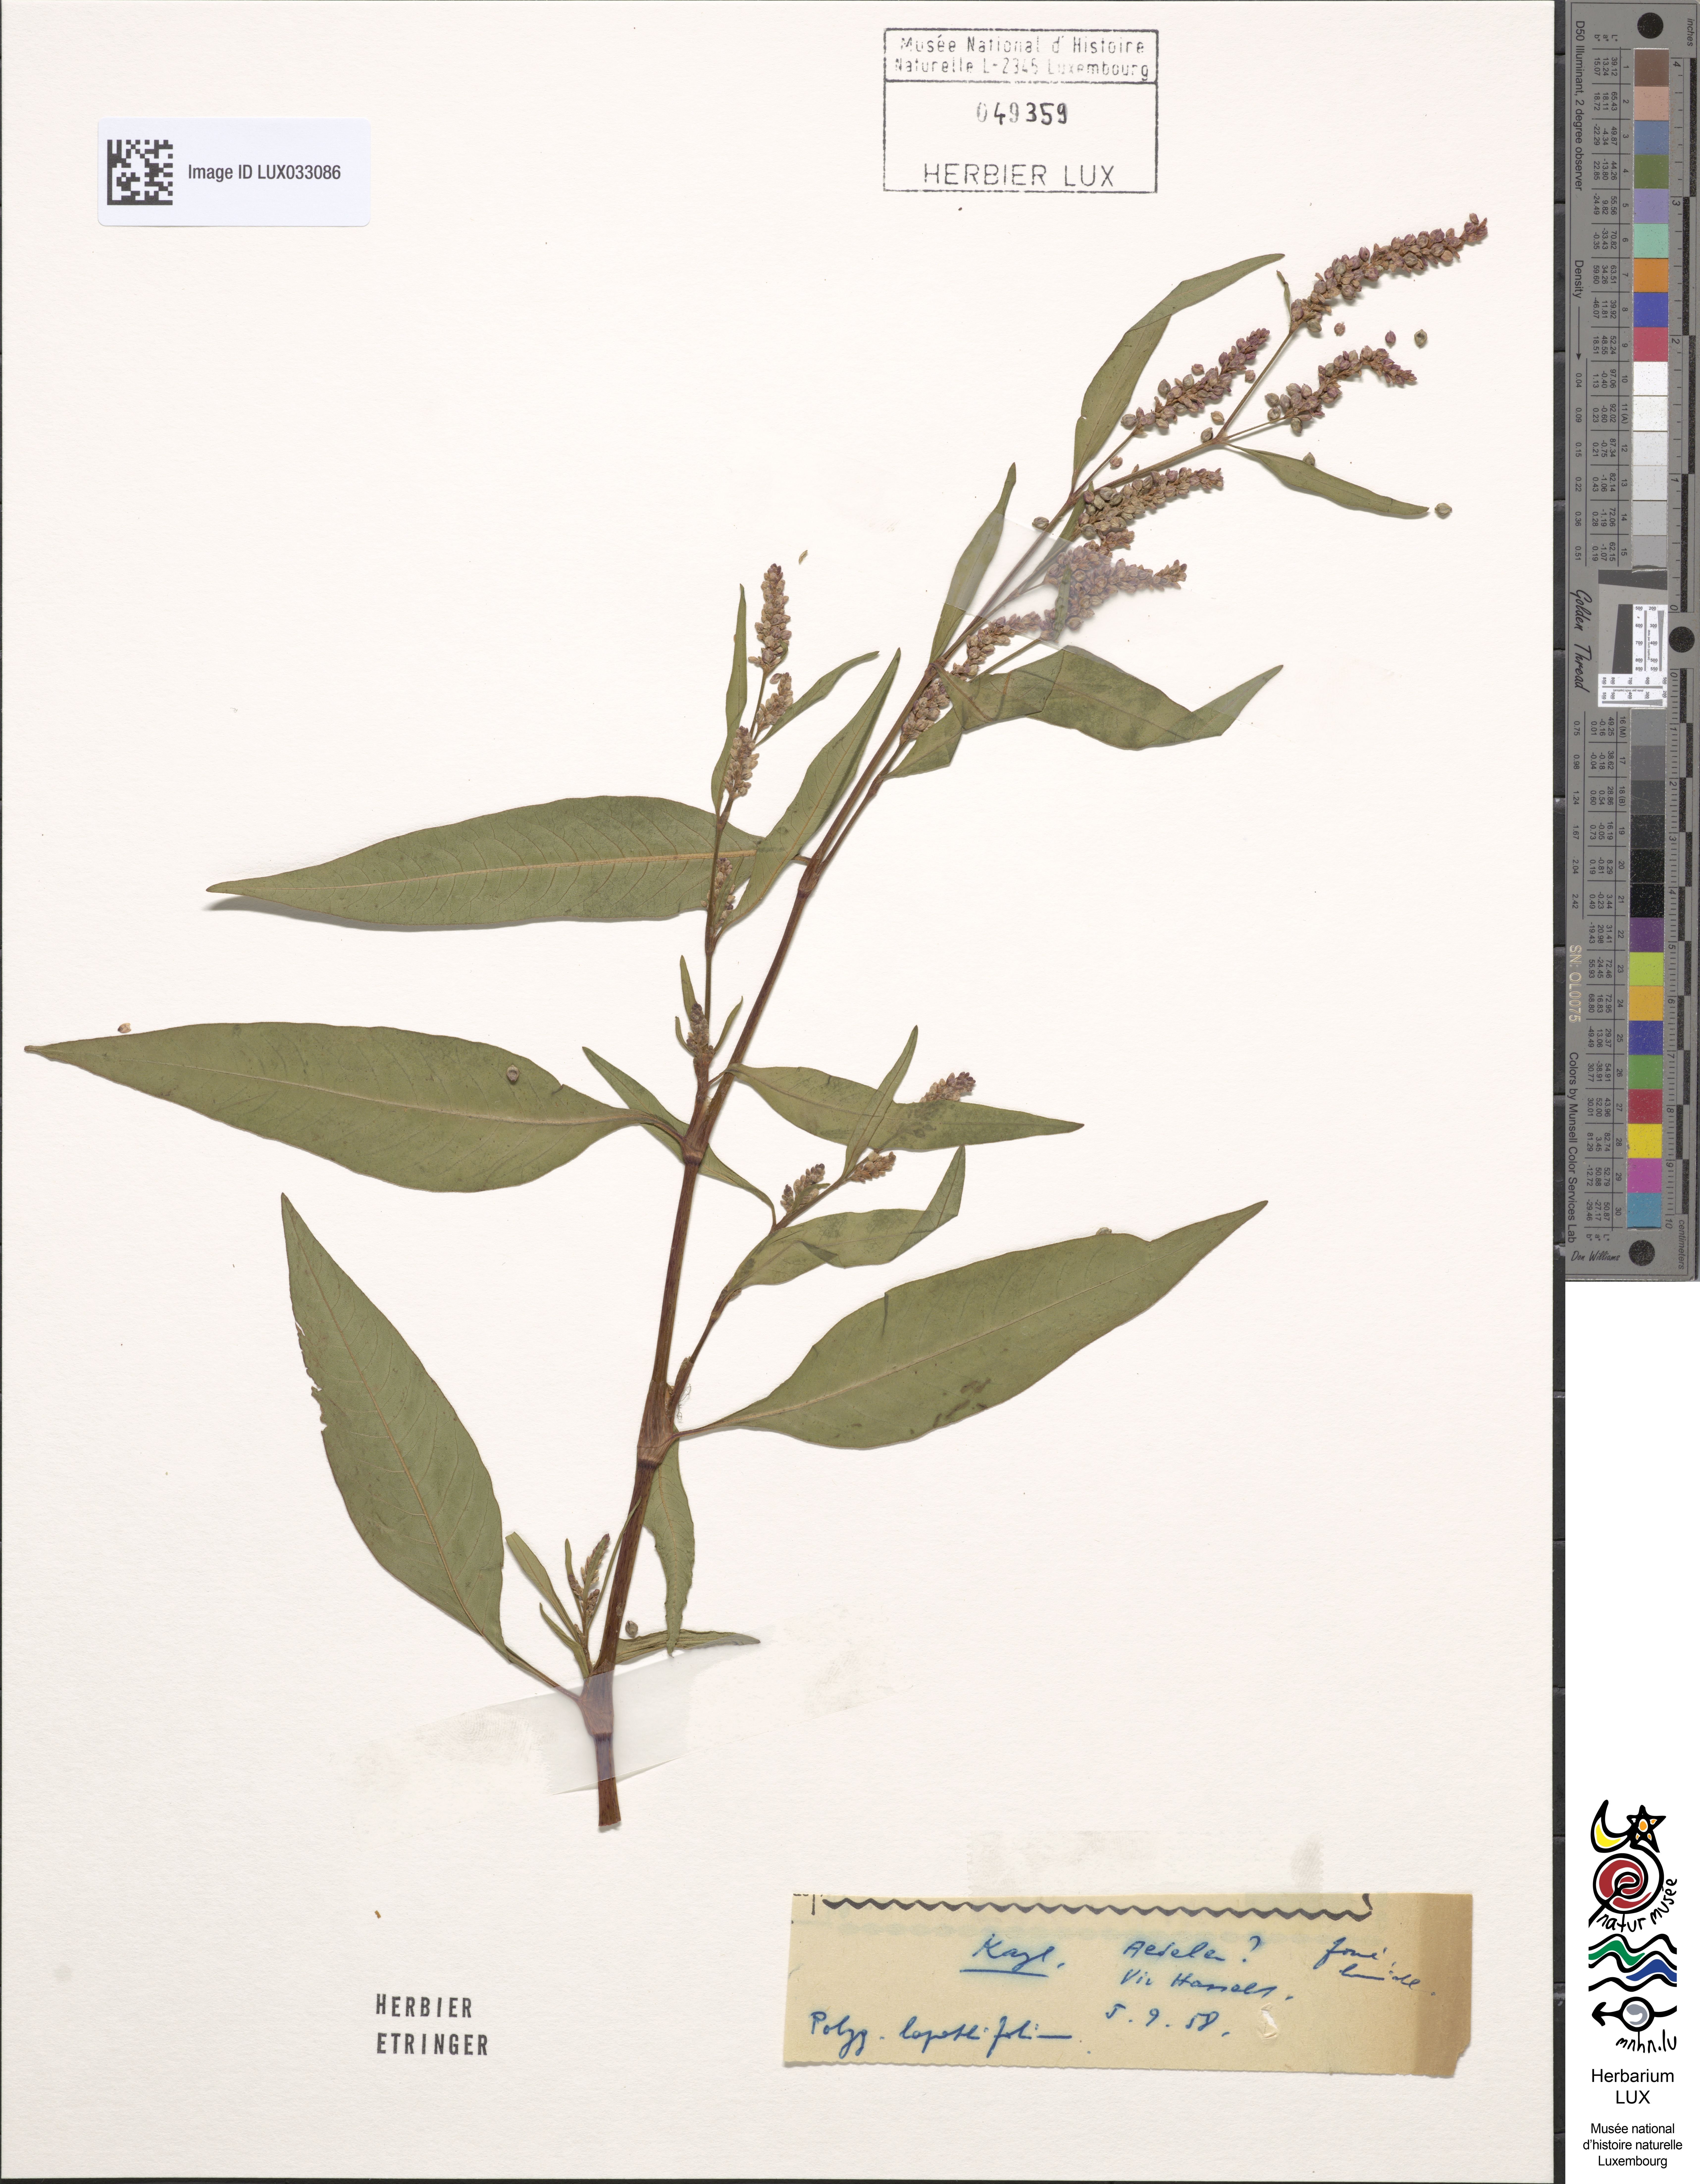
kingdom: Plantae
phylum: Tracheophyta
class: Magnoliopsida
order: Caryophyllales
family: Polygonaceae
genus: Persicaria
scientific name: Persicaria lapathifolia
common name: Curlytop knotweed
